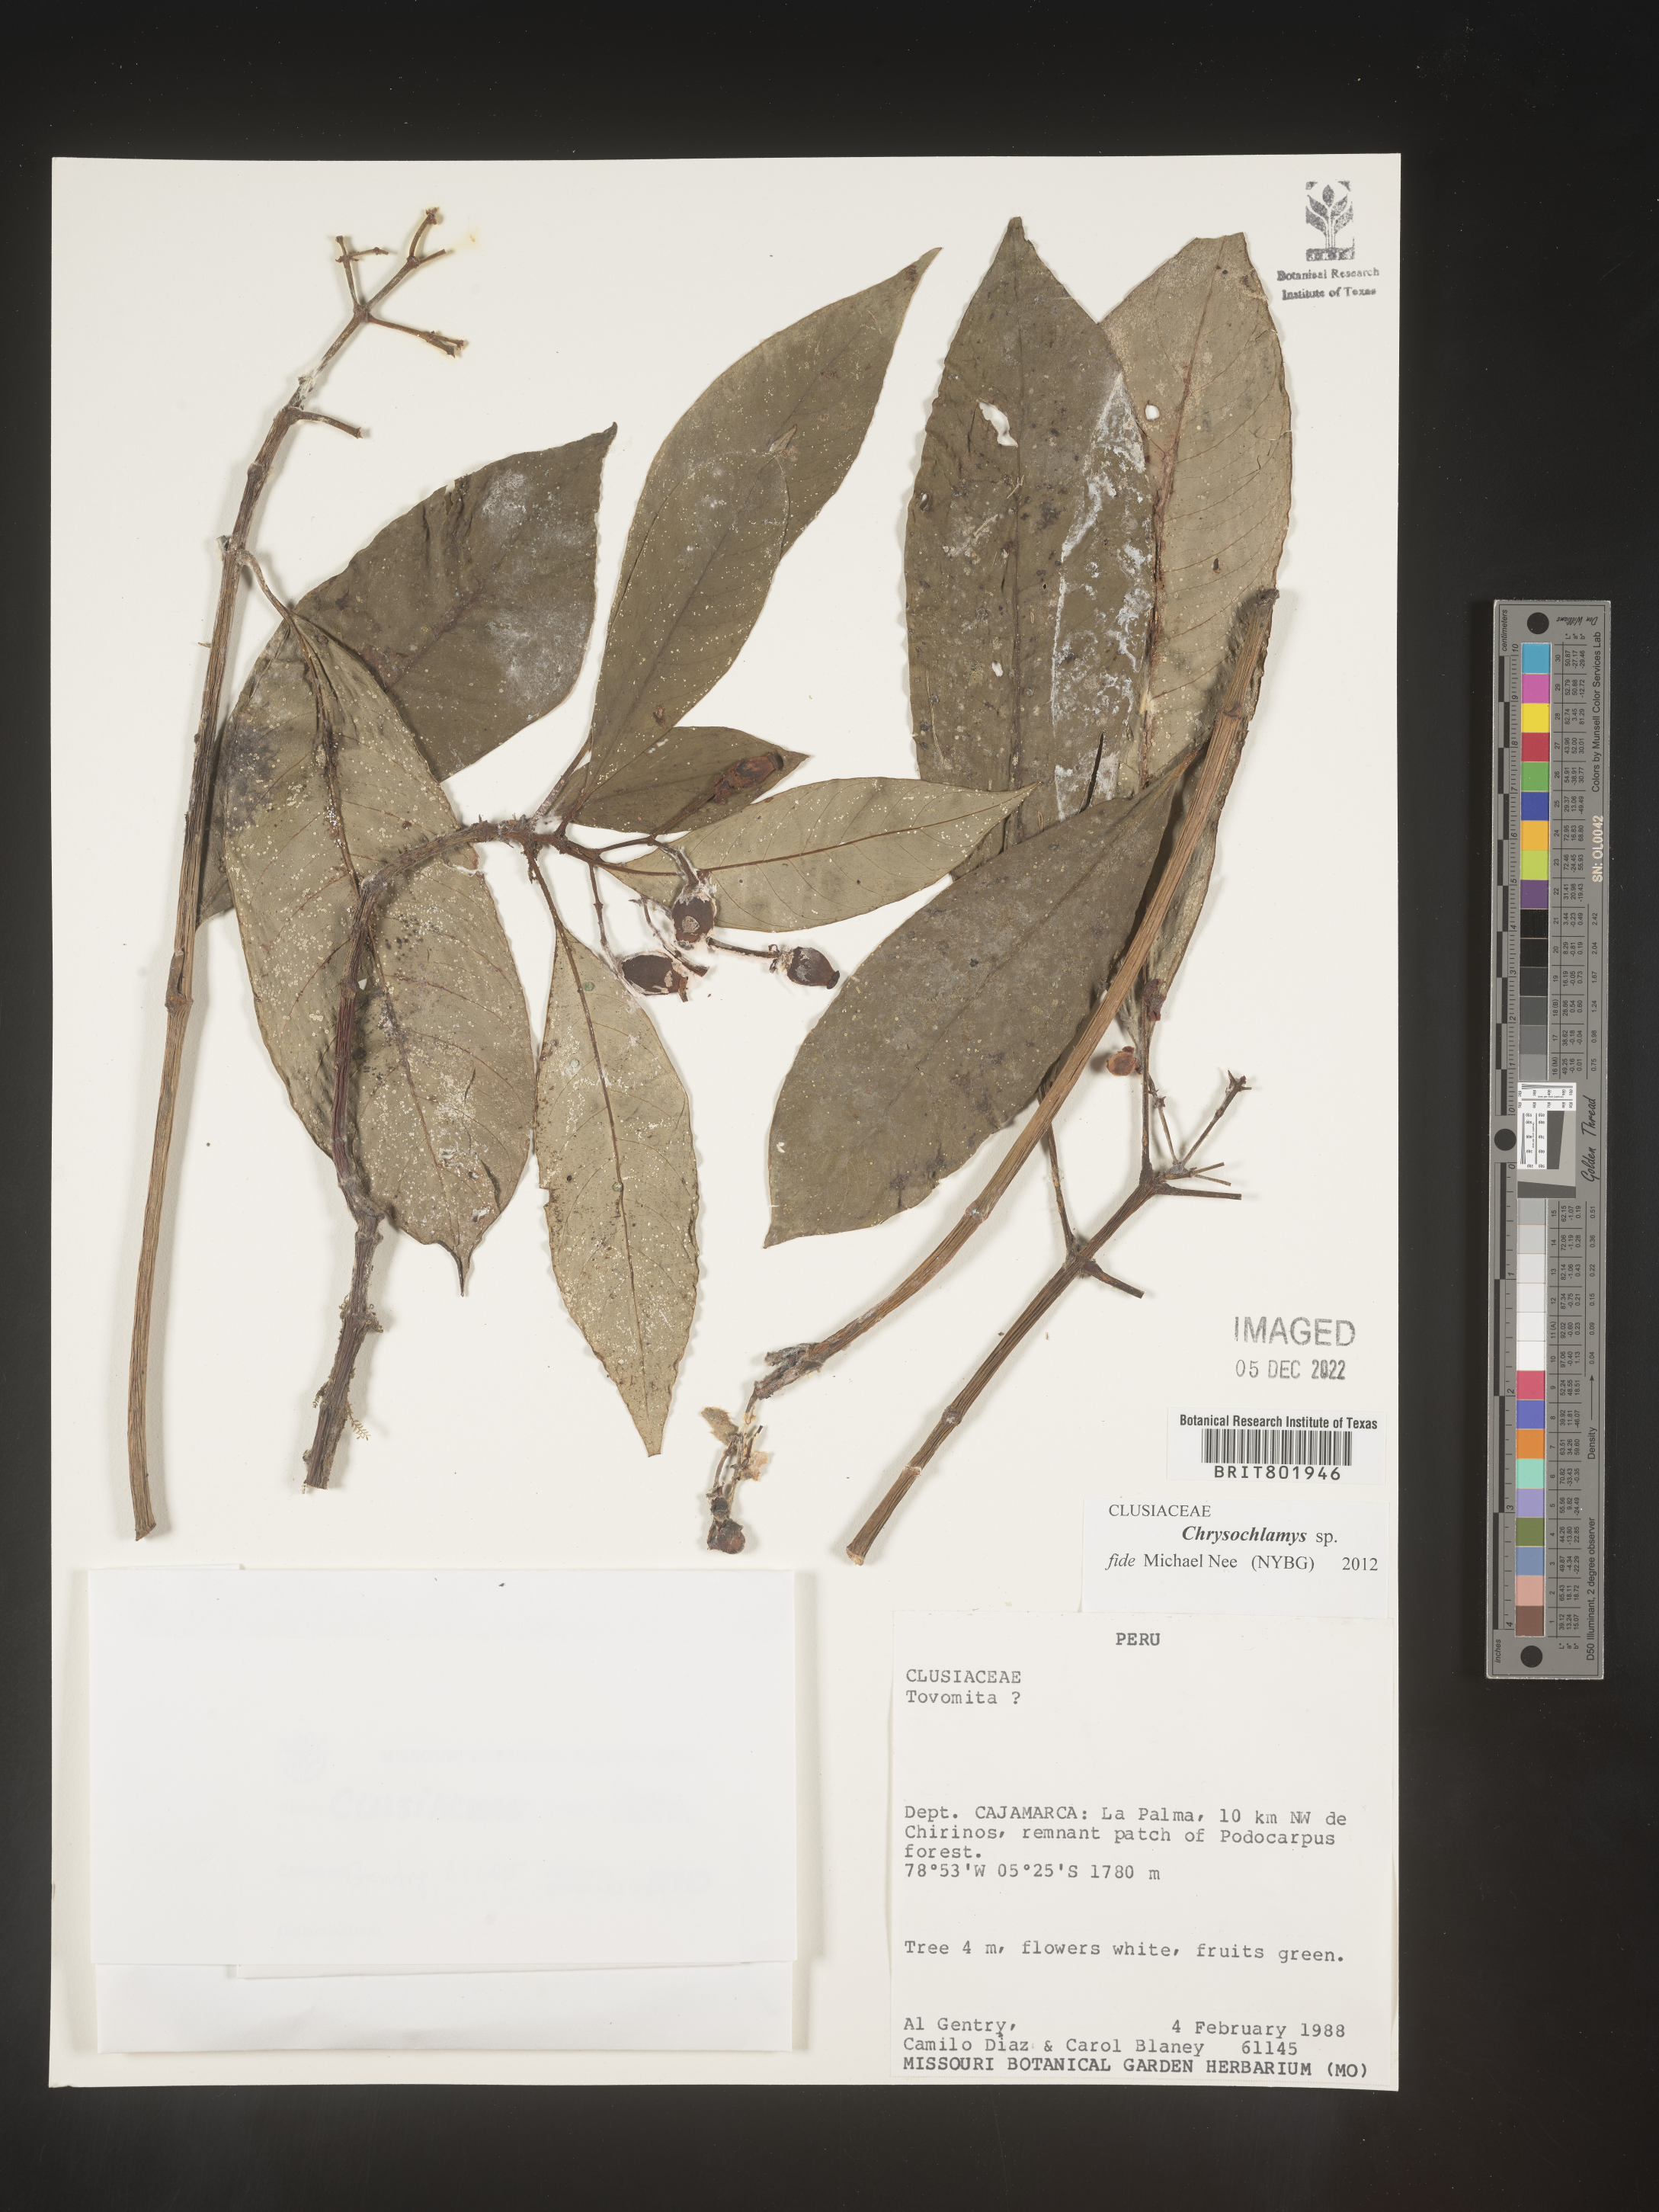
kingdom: Plantae
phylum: Tracheophyta
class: Magnoliopsida
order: Malpighiales
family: Clusiaceae
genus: Chrysochlamys
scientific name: Chrysochlamys
